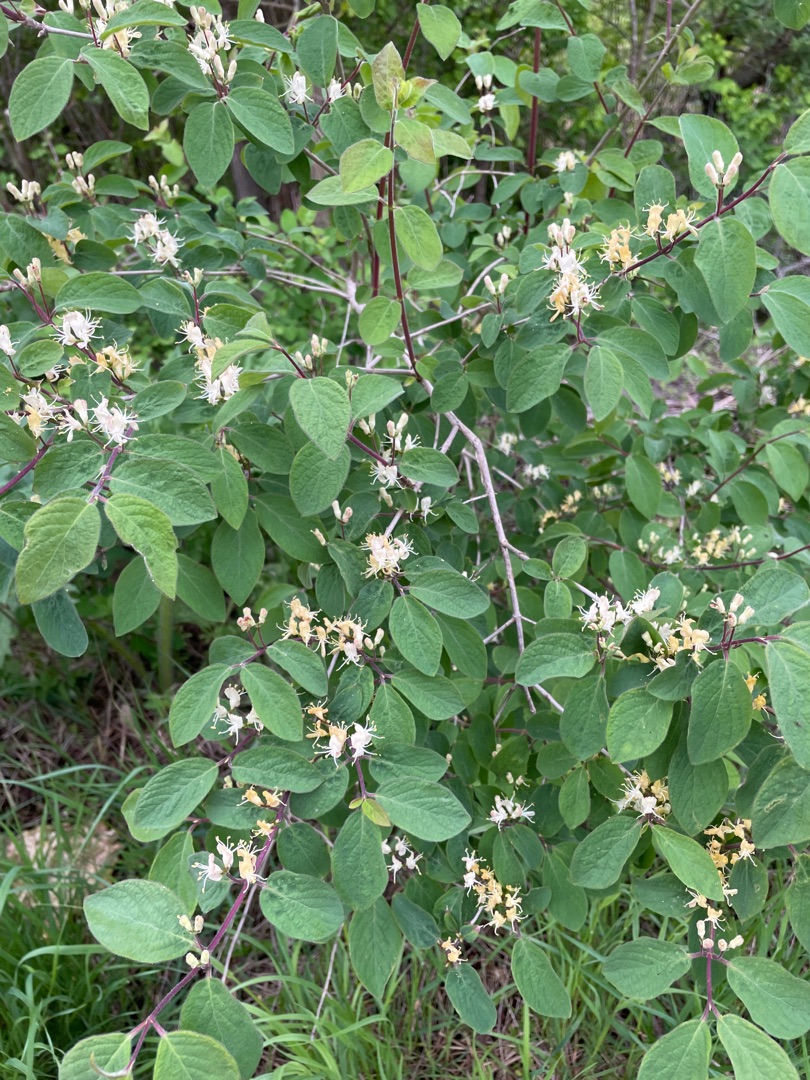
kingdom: Plantae
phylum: Tracheophyta
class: Magnoliopsida
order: Dipsacales
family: Caprifoliaceae
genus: Lonicera
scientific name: Lonicera xylosteum
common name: Dunet gedeblad
